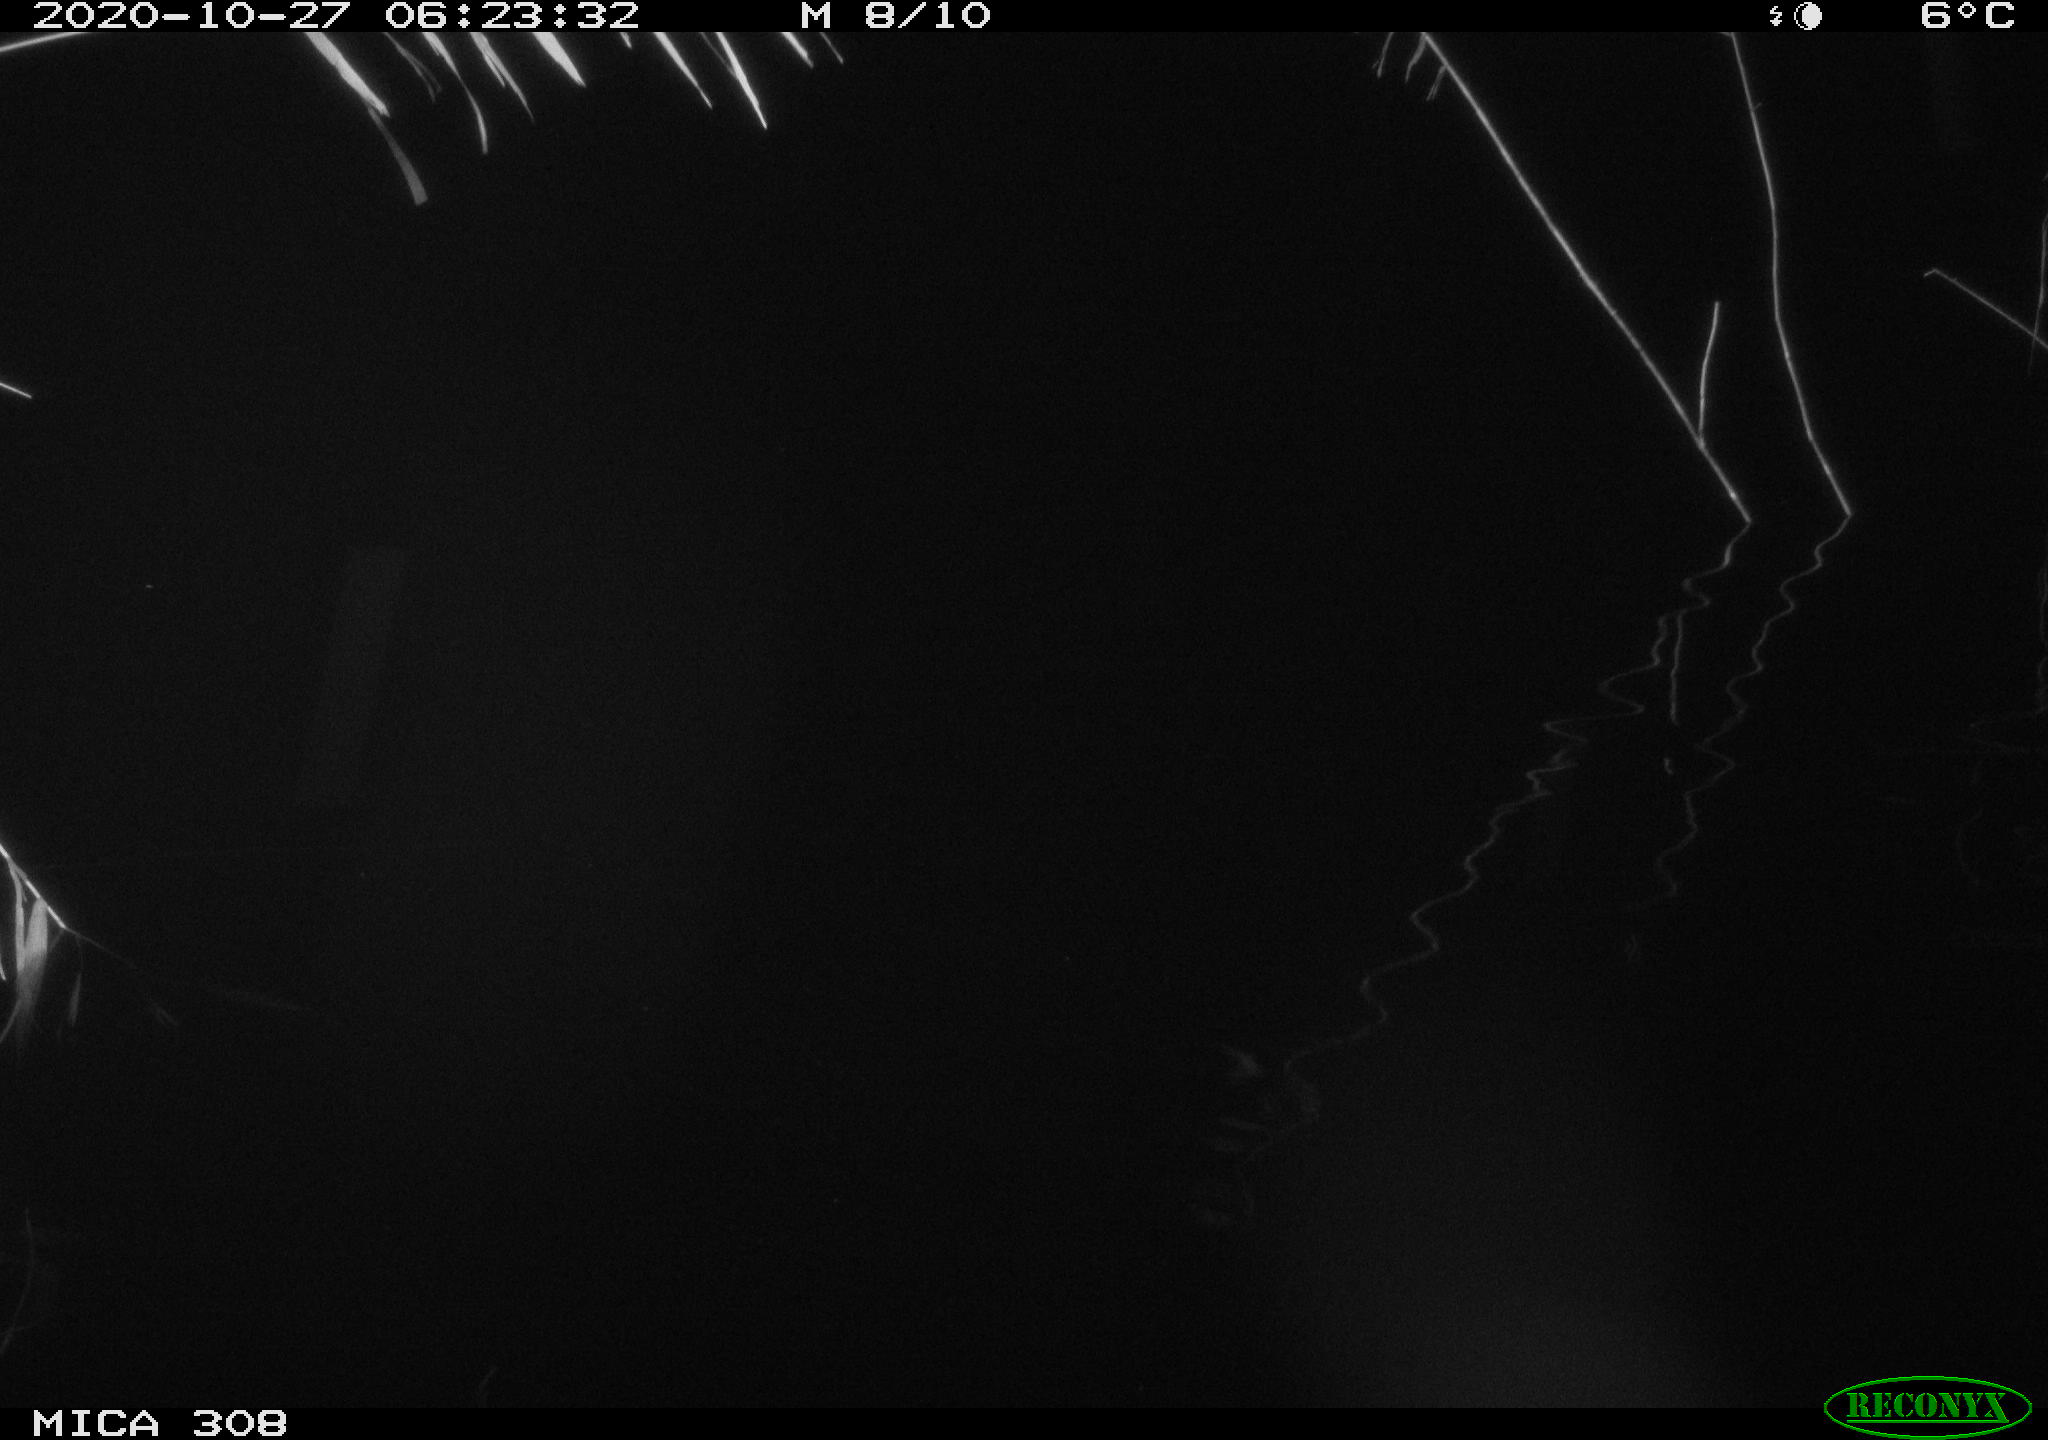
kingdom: Animalia
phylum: Chordata
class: Mammalia
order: Rodentia
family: Muridae
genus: Rattus
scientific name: Rattus norvegicus
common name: Brown rat
